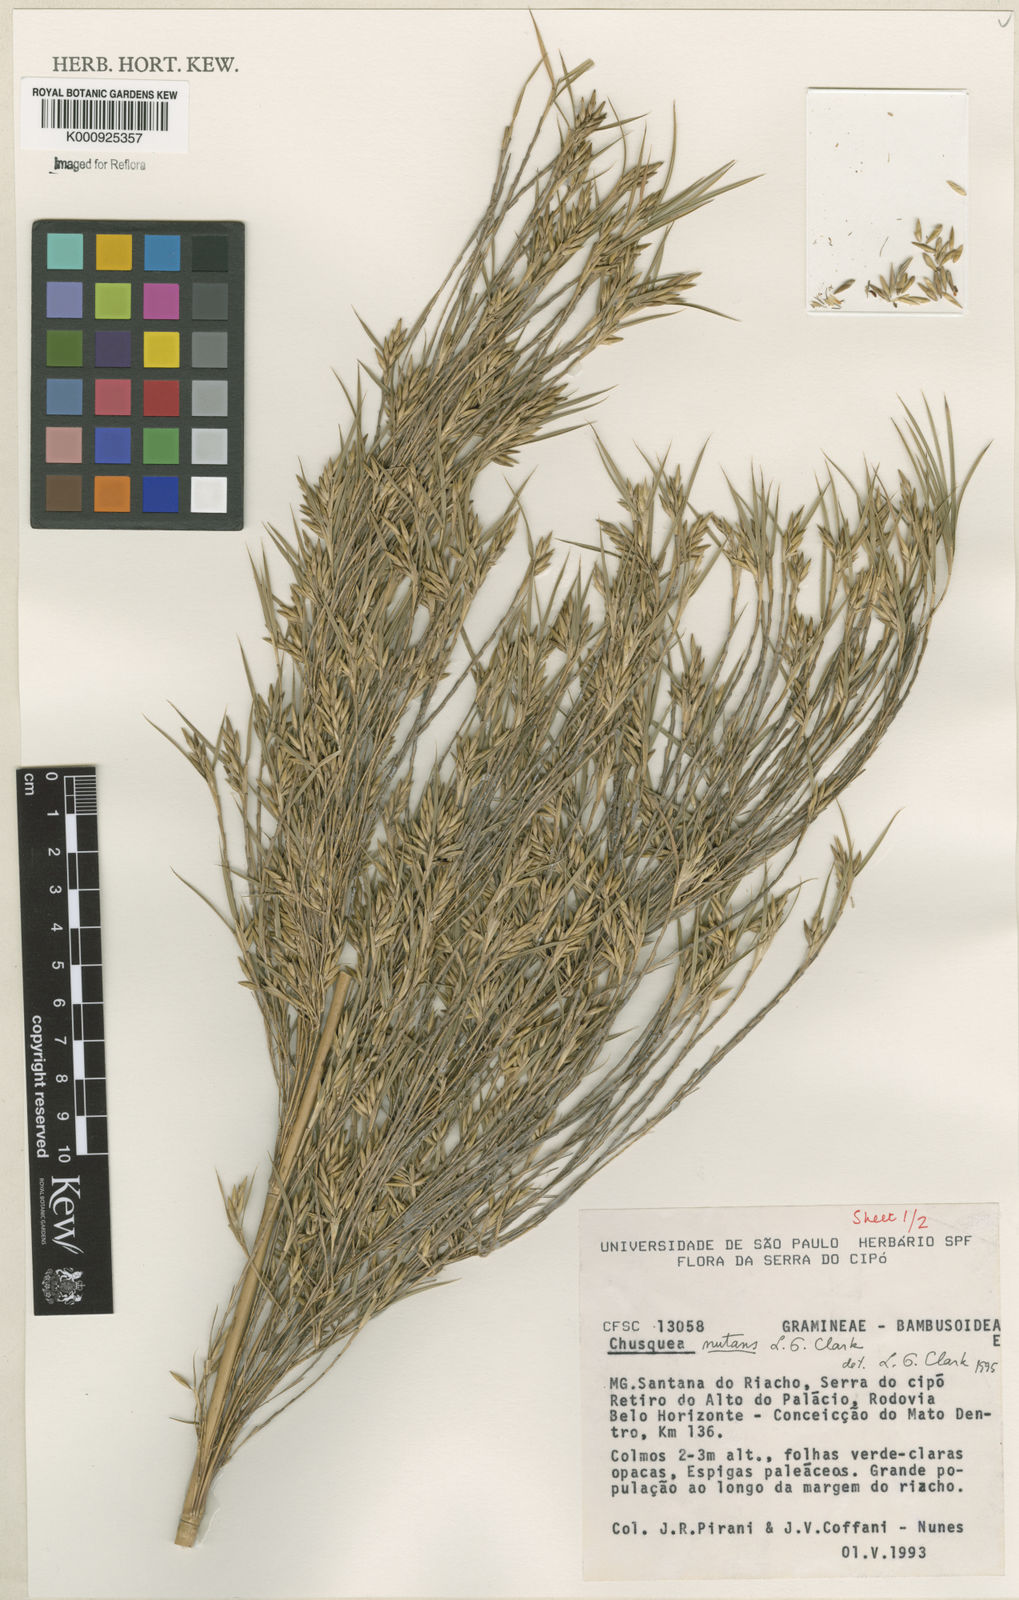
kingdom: Plantae
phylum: Tracheophyta
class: Liliopsida
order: Poales
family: Poaceae
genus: Chusquea
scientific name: Chusquea nutans
